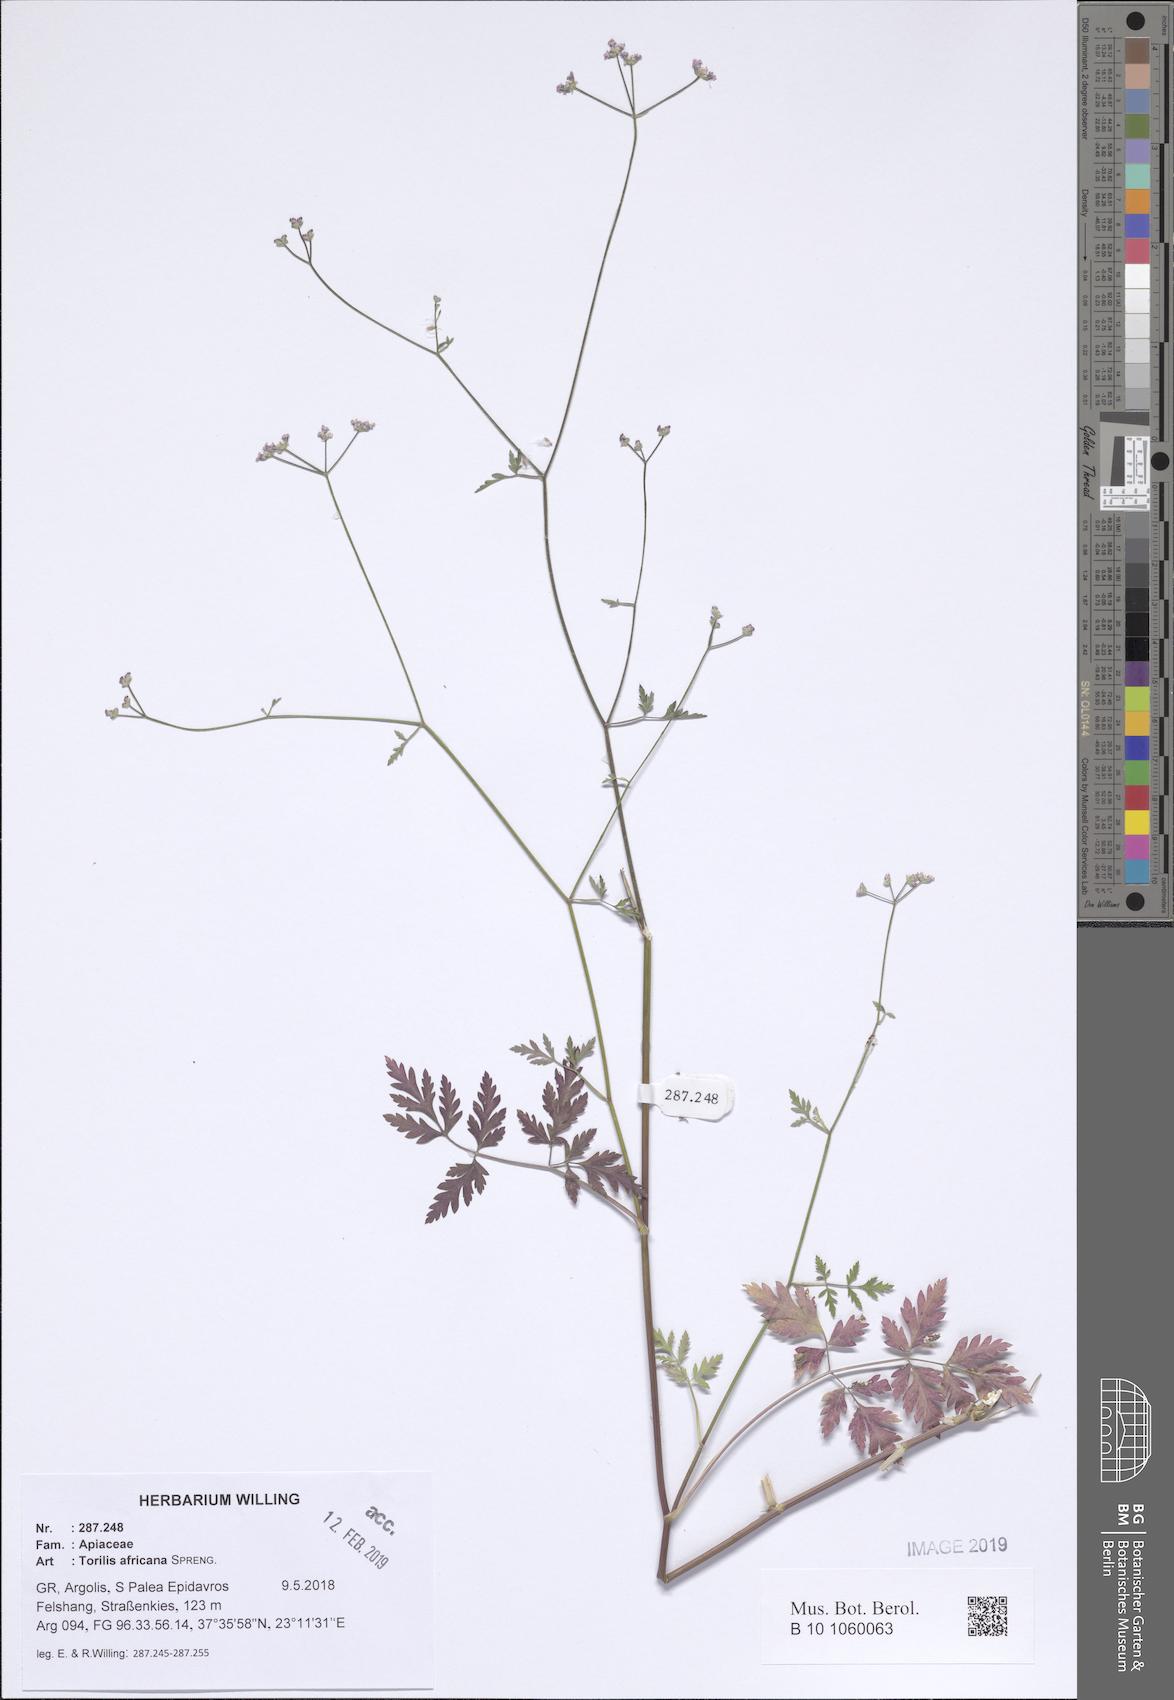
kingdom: Plantae
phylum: Tracheophyta
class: Magnoliopsida
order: Apiales
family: Apiaceae
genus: Torilis
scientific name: Torilis africana
